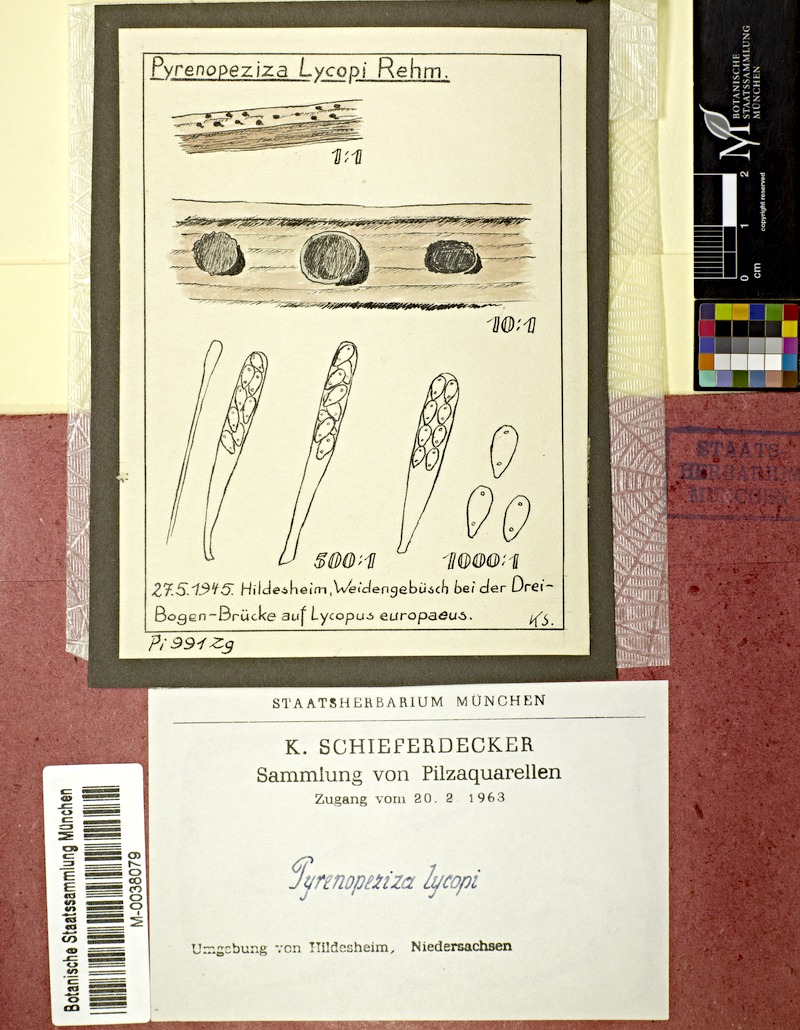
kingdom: Plantae
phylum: Tracheophyta
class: Magnoliopsida
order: Lamiales
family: Lamiaceae
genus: Lycopus
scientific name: Lycopus europaeus
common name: European bugleweed
